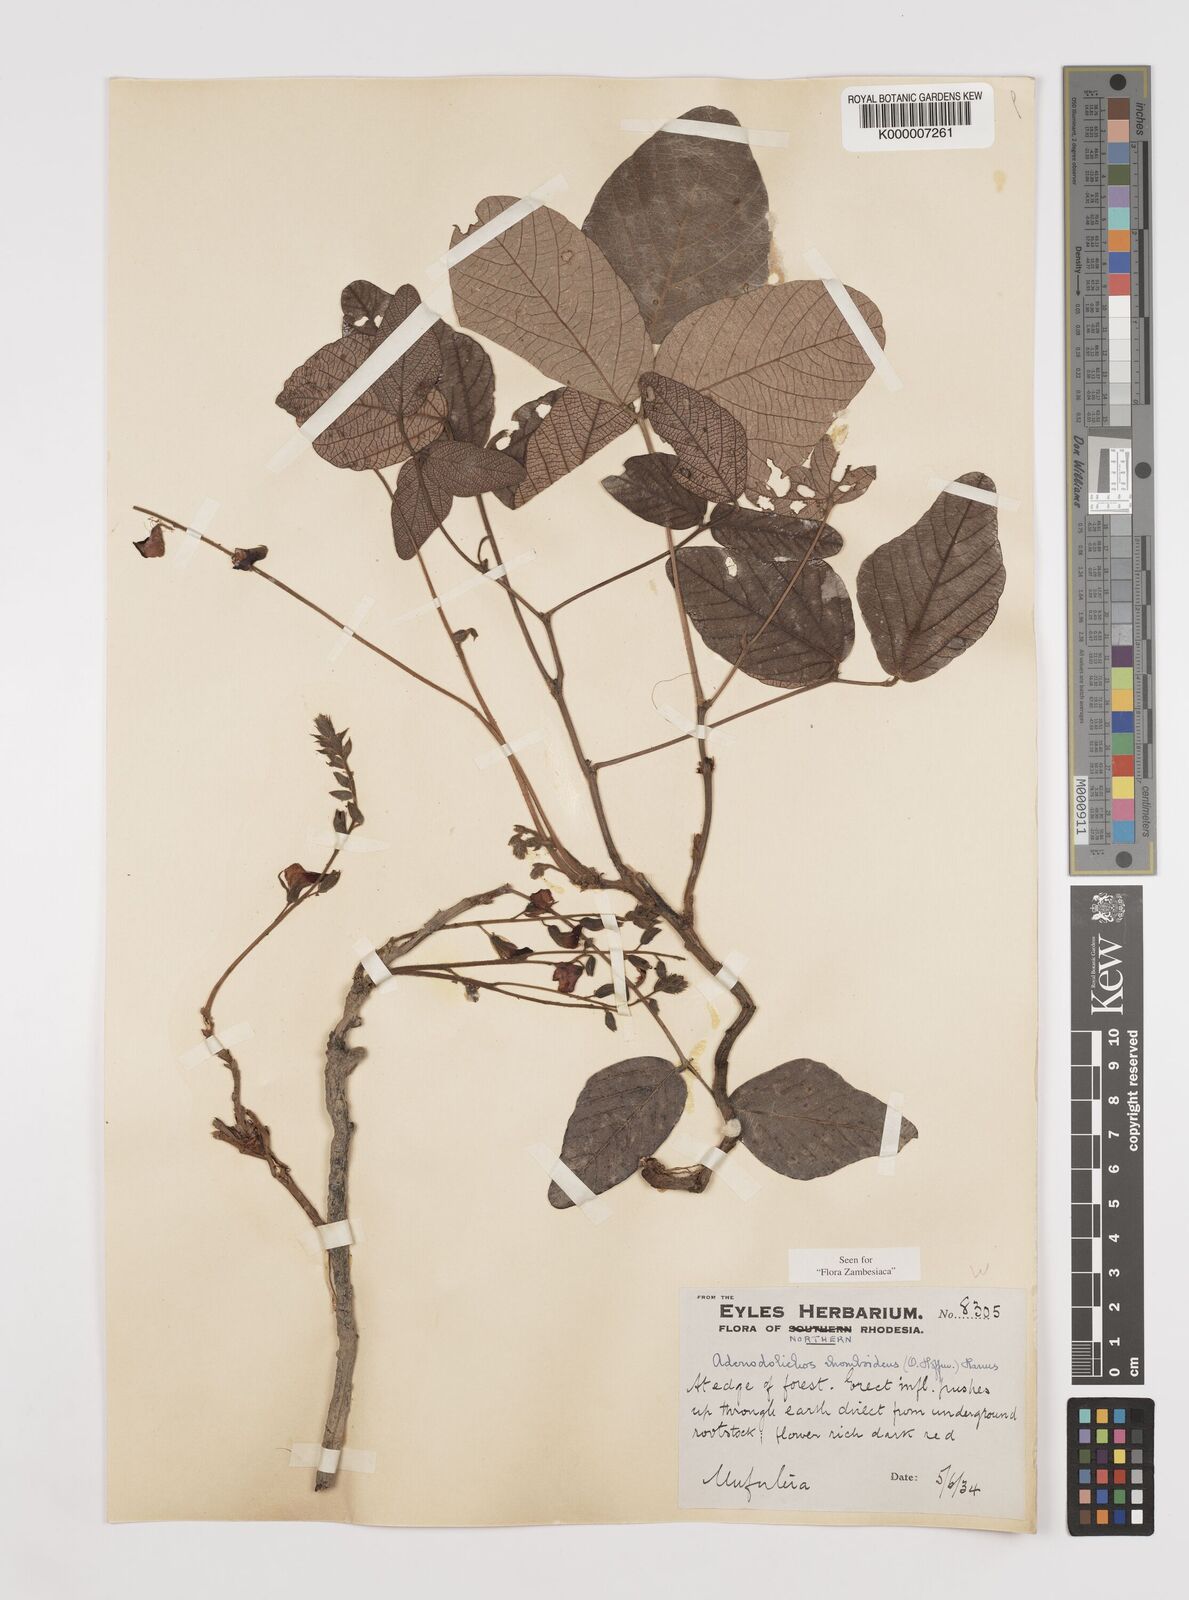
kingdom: Plantae
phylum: Tracheophyta
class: Magnoliopsida
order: Fabales
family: Fabaceae
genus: Adenodolichos
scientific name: Adenodolichos rhomboideus
